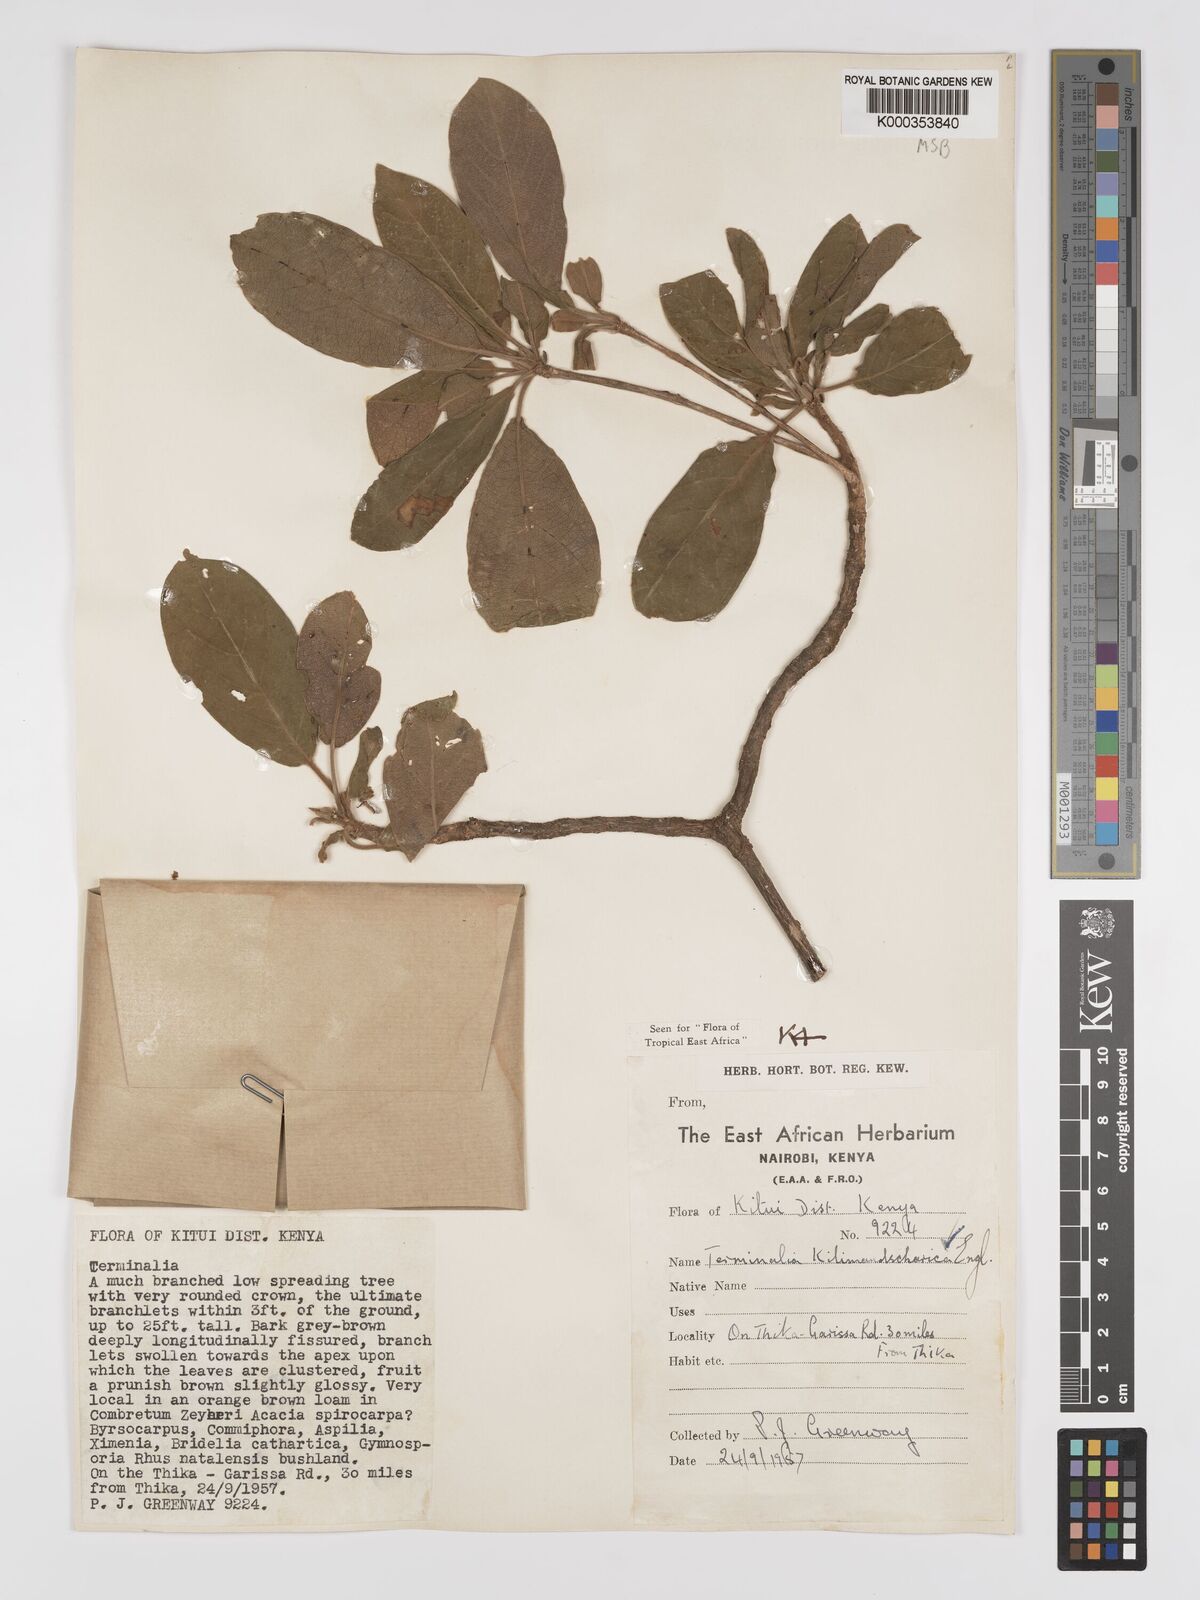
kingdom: Plantae
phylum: Tracheophyta
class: Magnoliopsida
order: Myrtales
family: Combretaceae
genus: Terminalia
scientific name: Terminalia kilimandscharica
